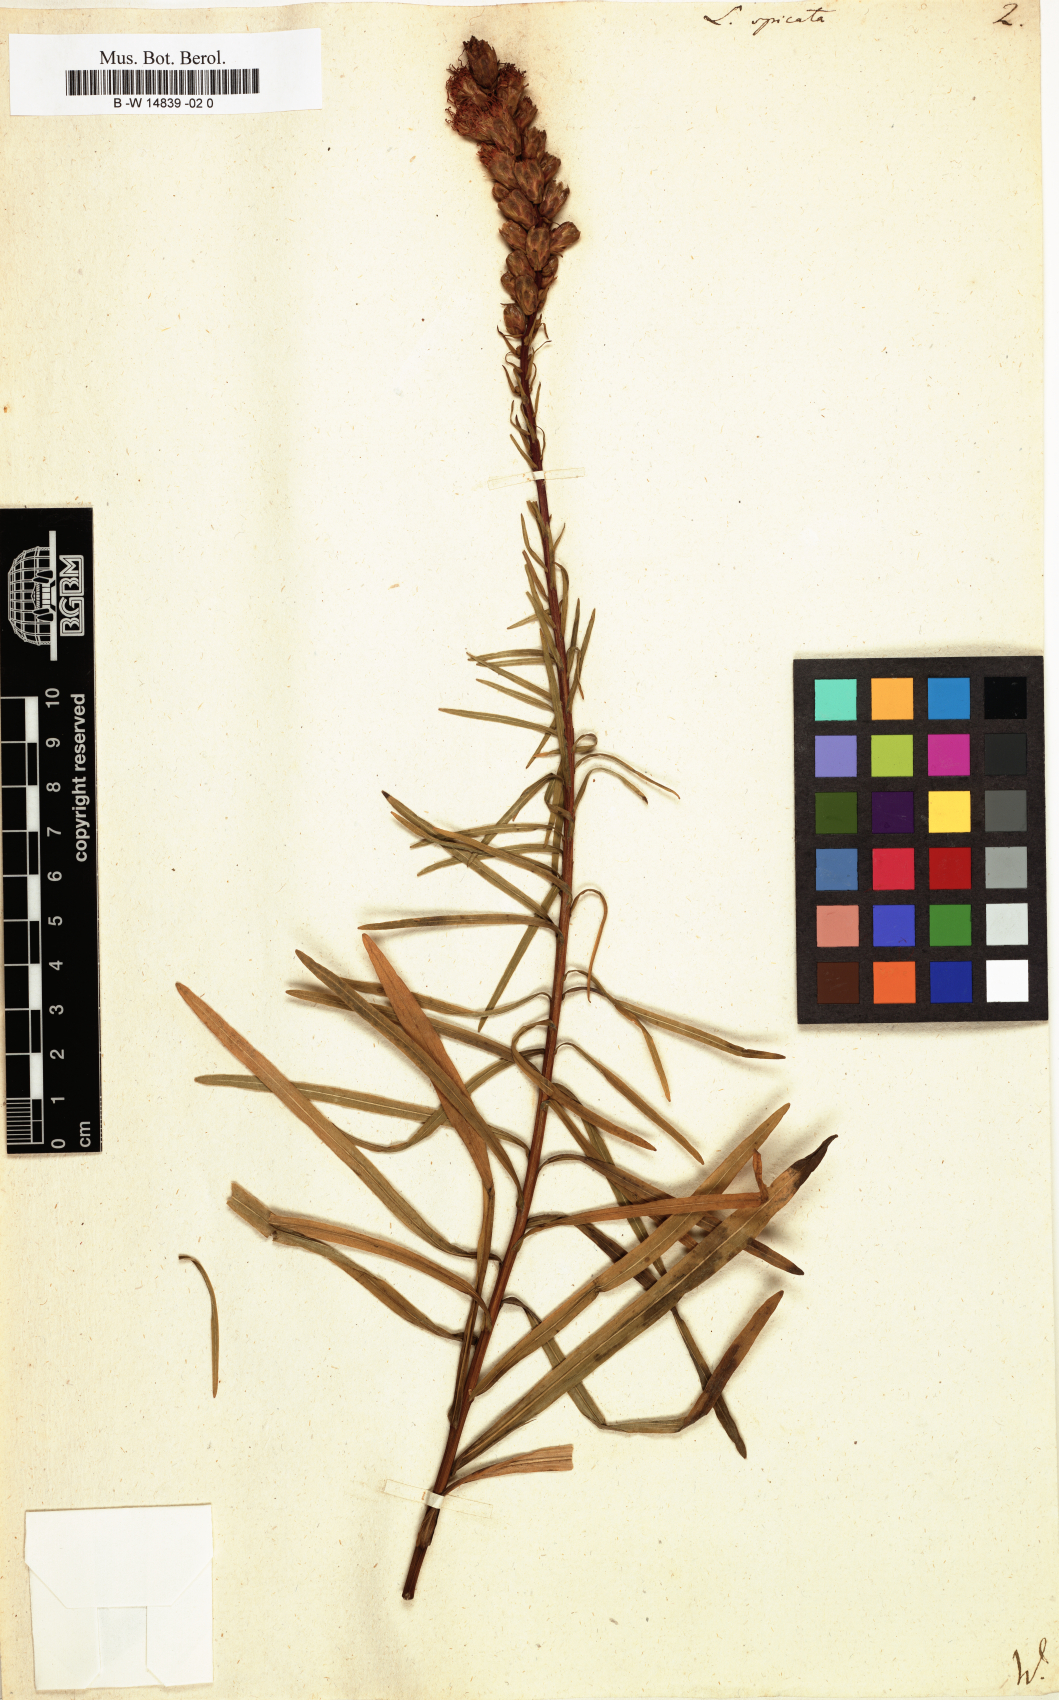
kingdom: Plantae
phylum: Tracheophyta
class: Magnoliopsida
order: Asterales
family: Asteraceae
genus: Liatris
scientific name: Liatris spicata
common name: Florist gayfeather
